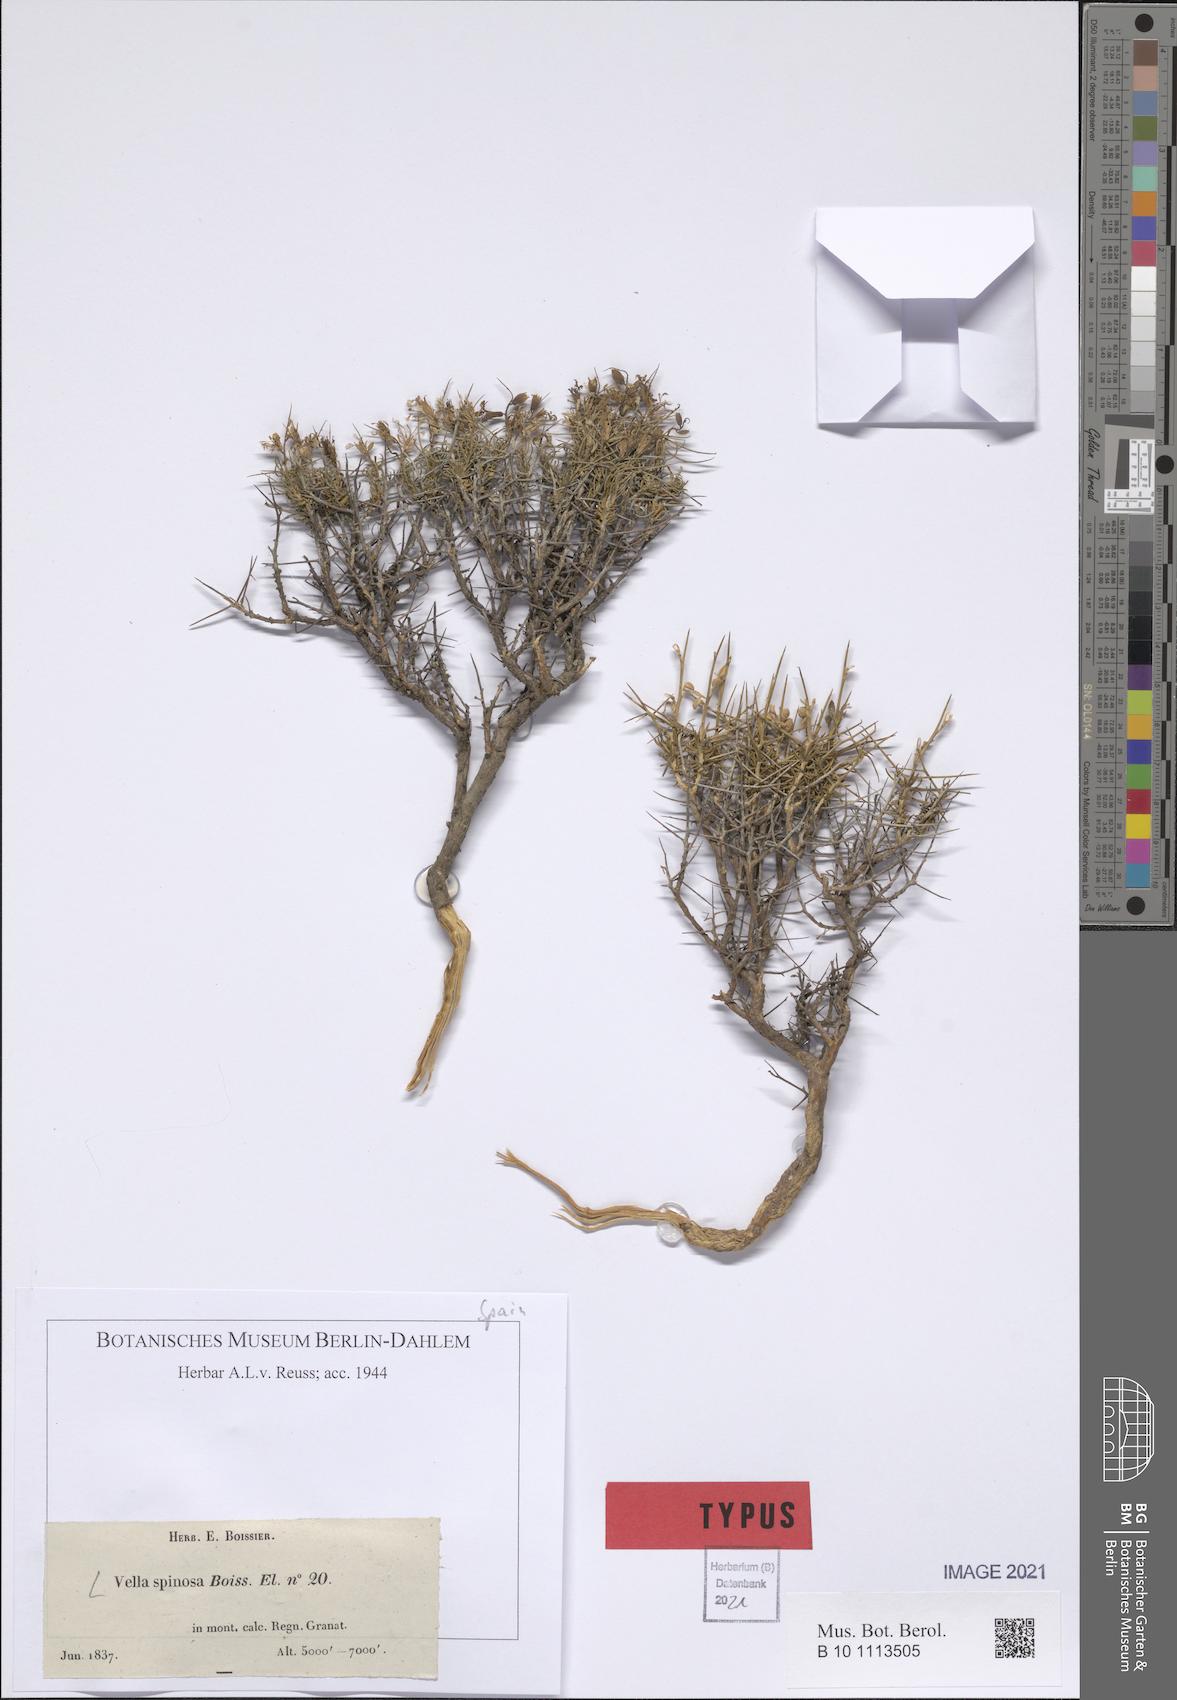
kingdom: Plantae
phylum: Tracheophyta
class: Magnoliopsida
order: Brassicales
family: Brassicaceae
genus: Vella
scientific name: Vella spinosa
